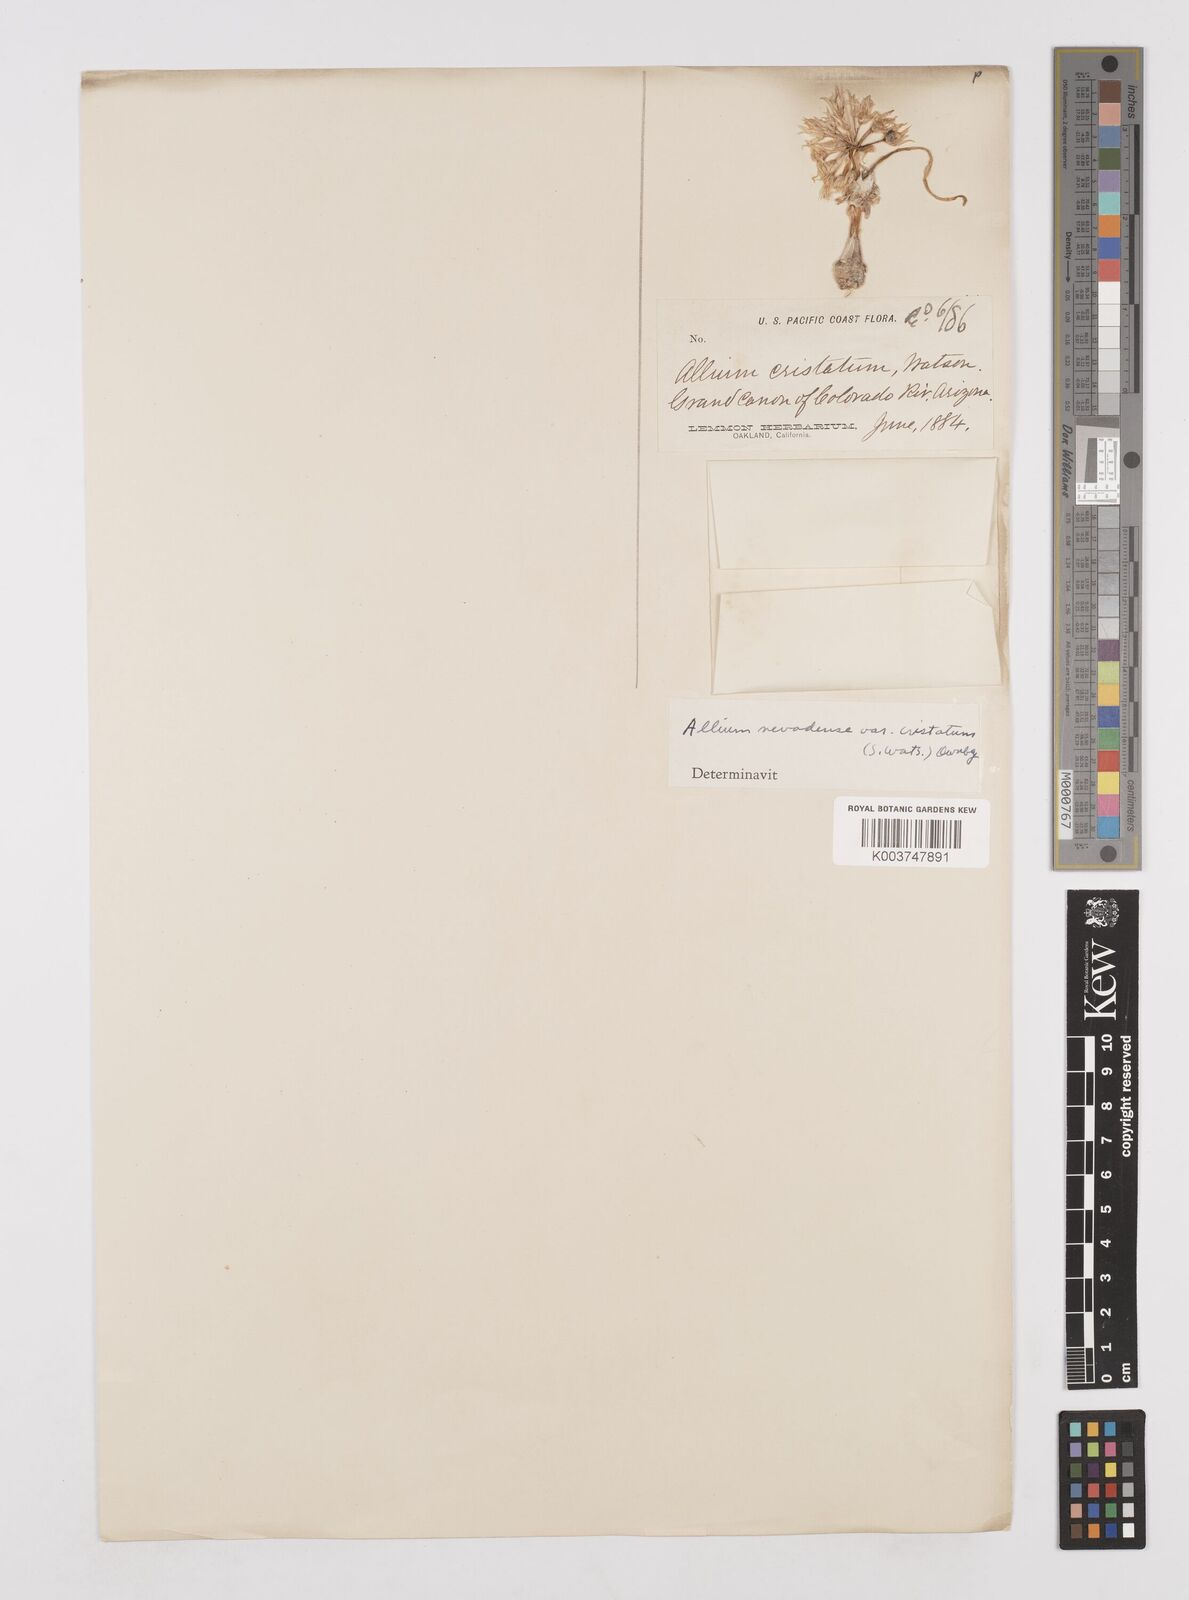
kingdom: Plantae
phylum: Tracheophyta
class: Liliopsida
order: Asparagales
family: Amaryllidaceae
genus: Allium
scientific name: Allium atrorubens
